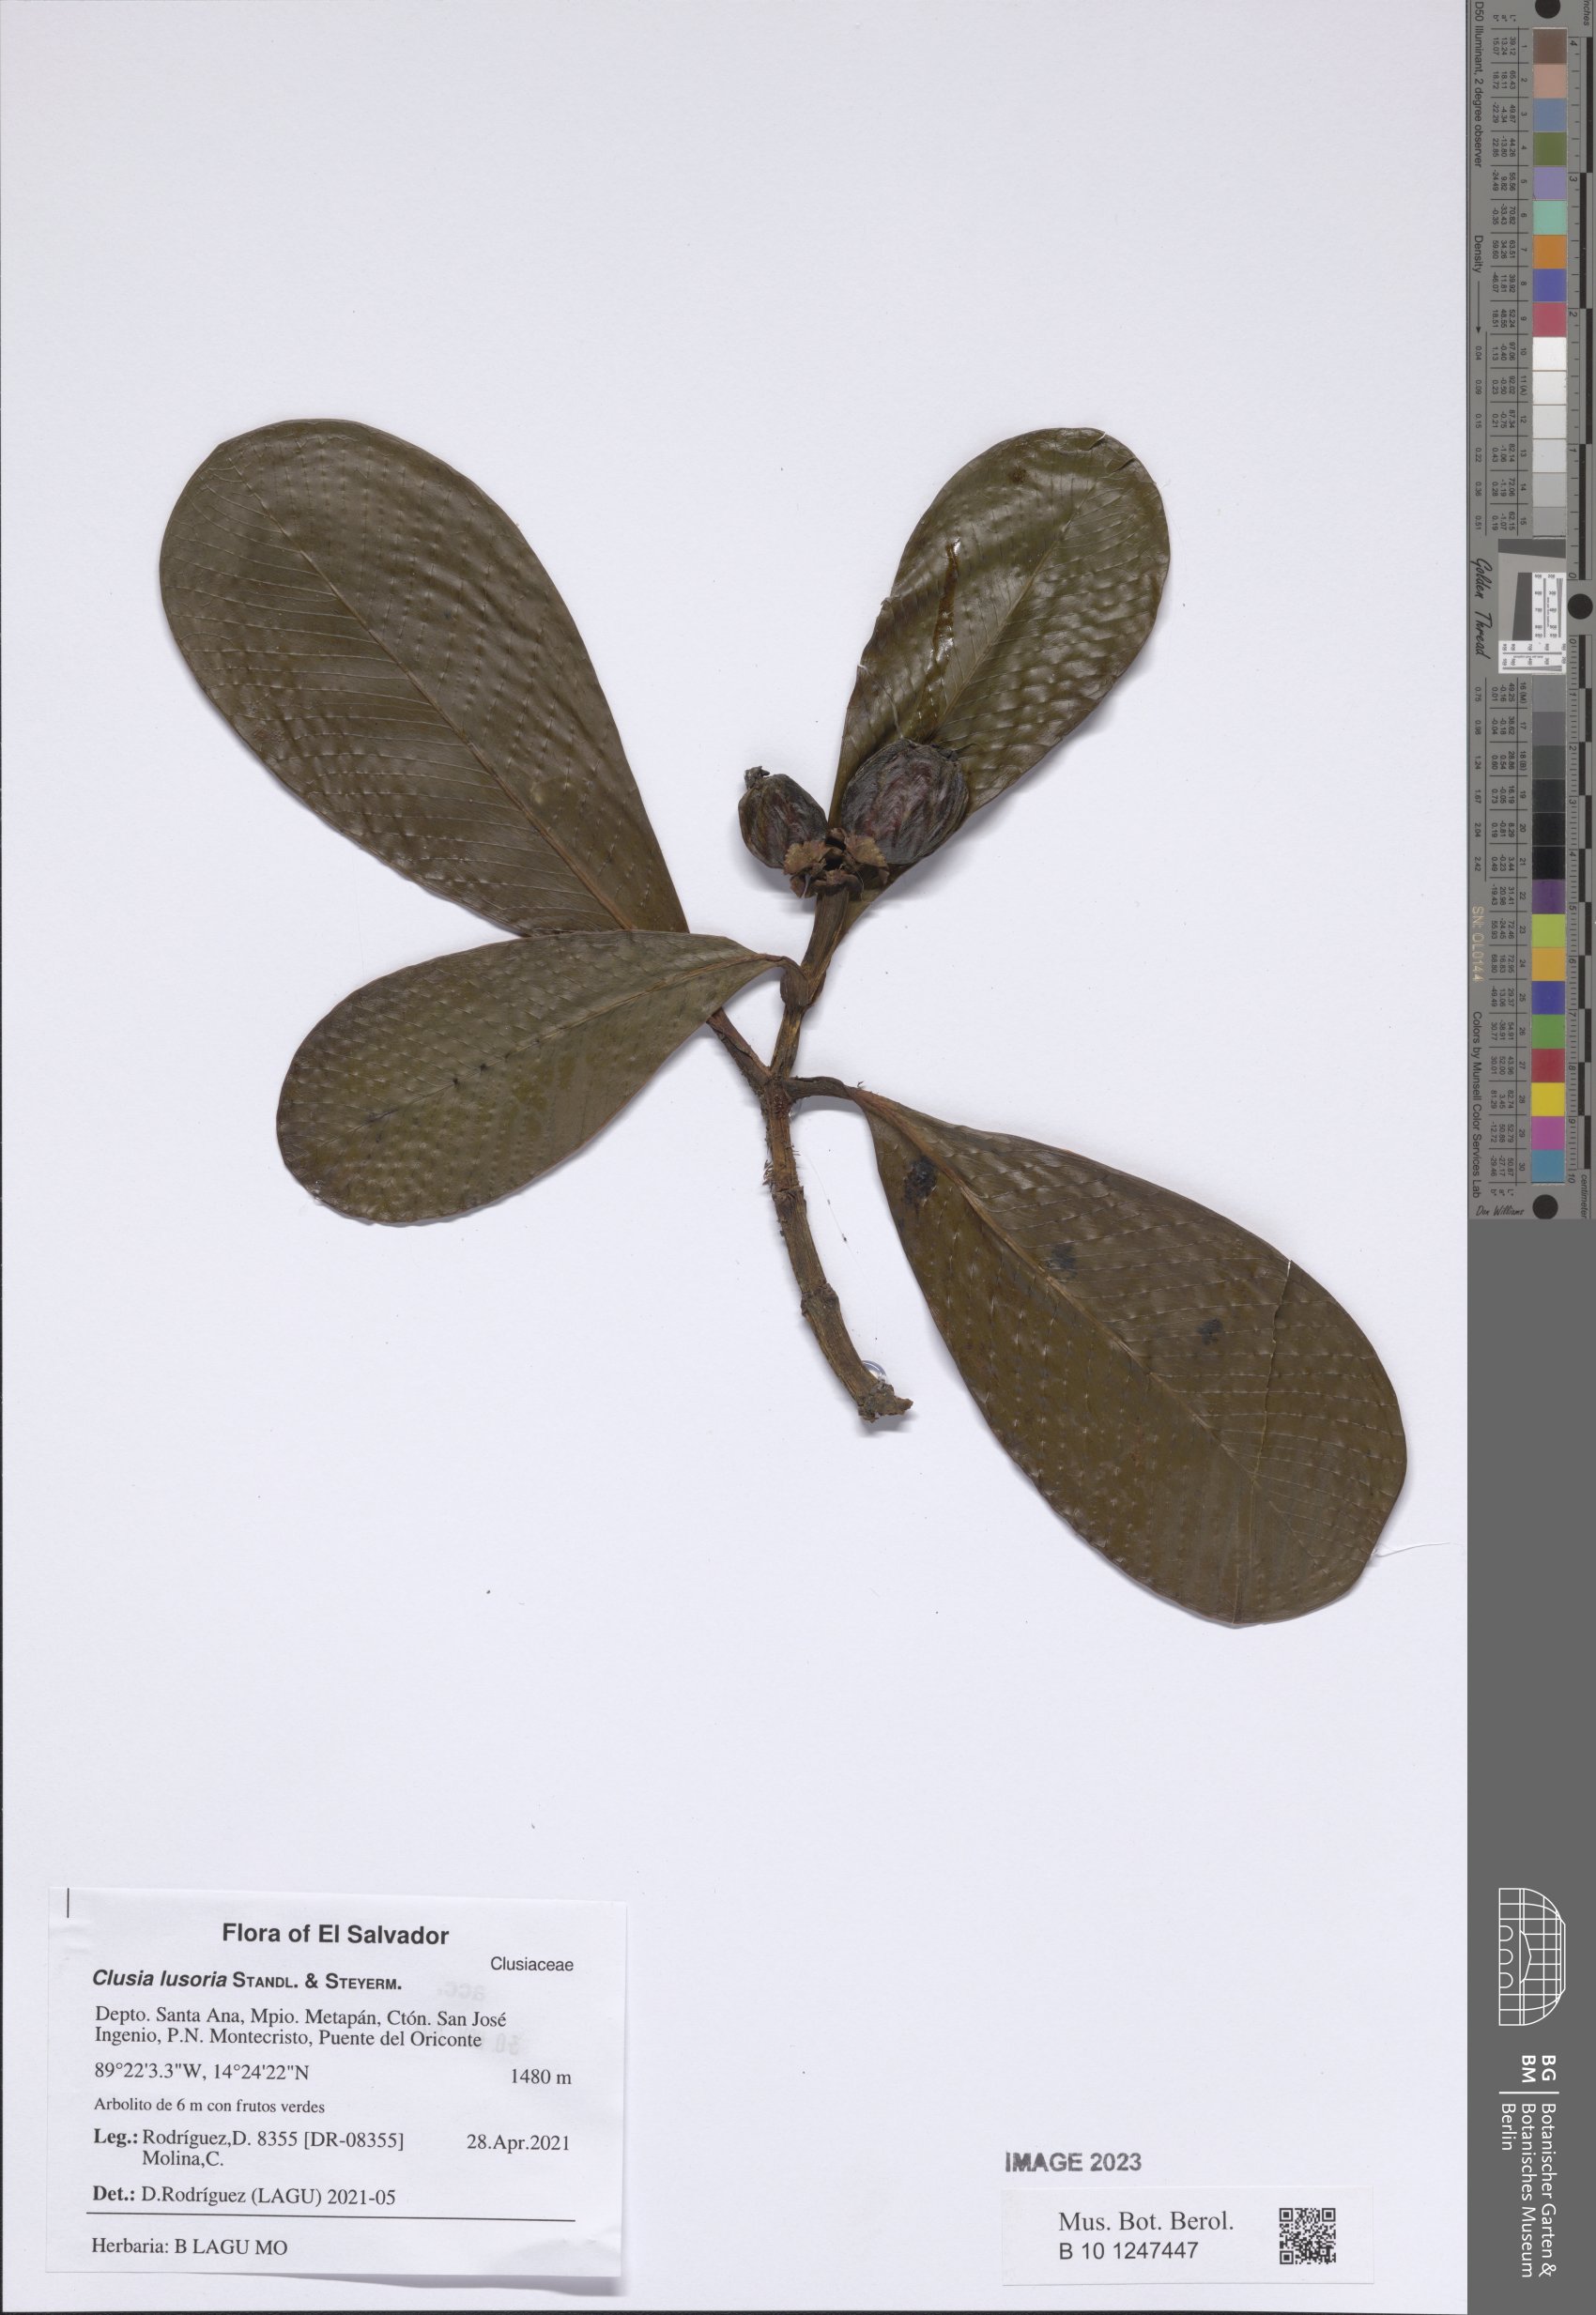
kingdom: Plantae
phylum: Tracheophyta
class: Magnoliopsida
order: Malpighiales
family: Clusiaceae
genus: Clusia
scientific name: Clusia lusoria
